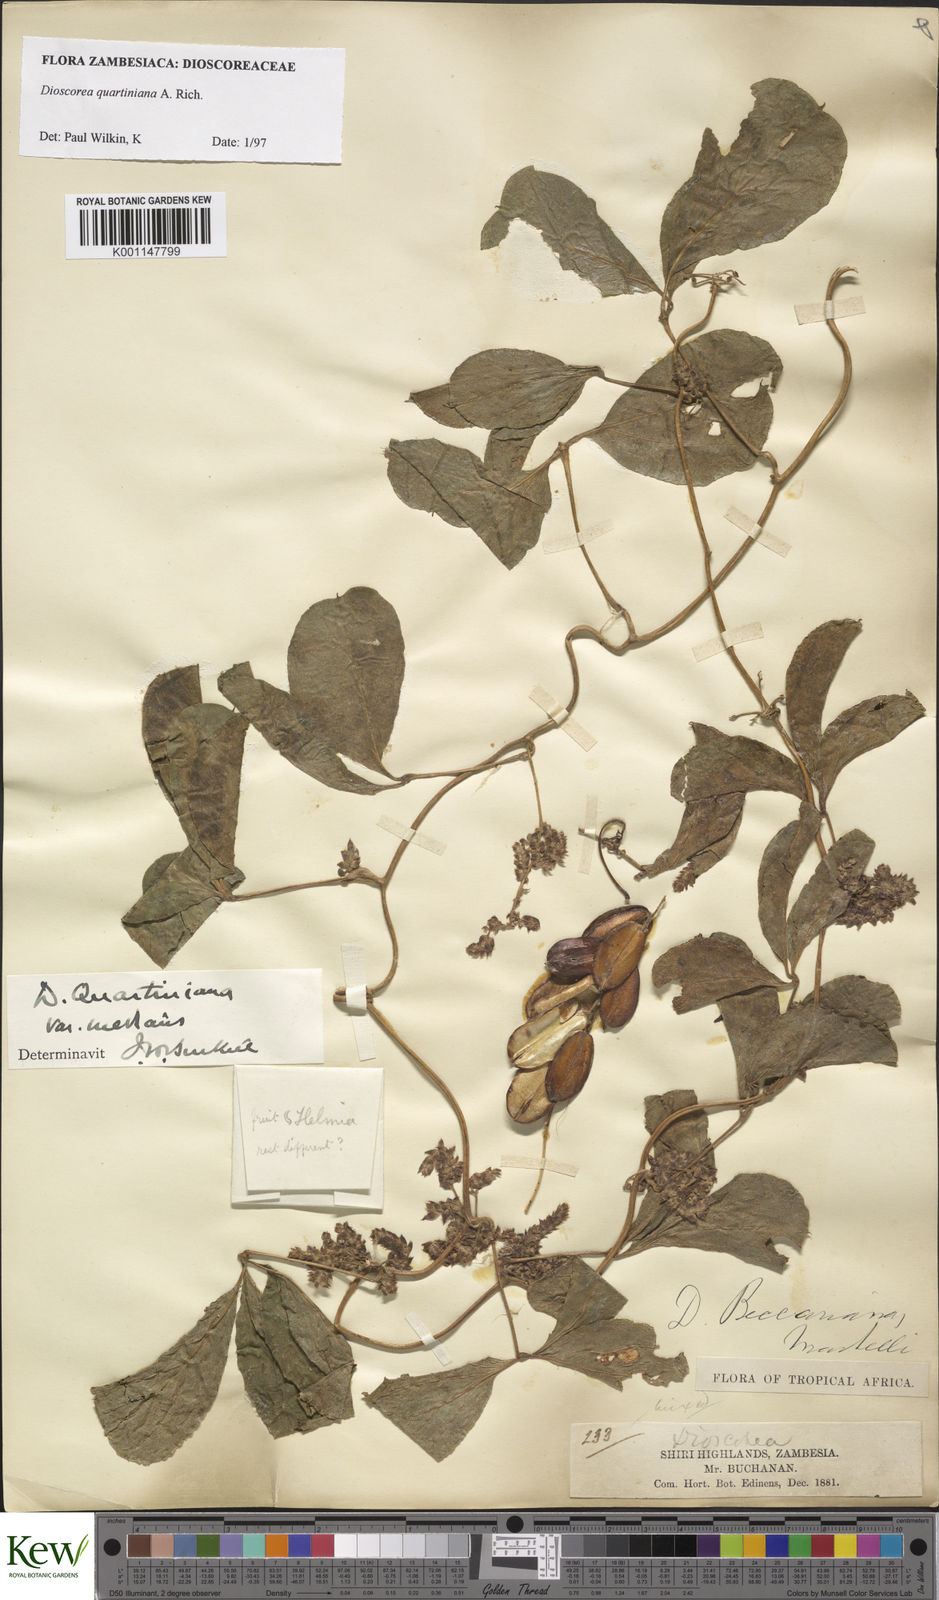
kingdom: Plantae
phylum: Tracheophyta
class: Liliopsida
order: Dioscoreales
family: Dioscoreaceae
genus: Dioscorea
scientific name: Dioscorea quartiniana
